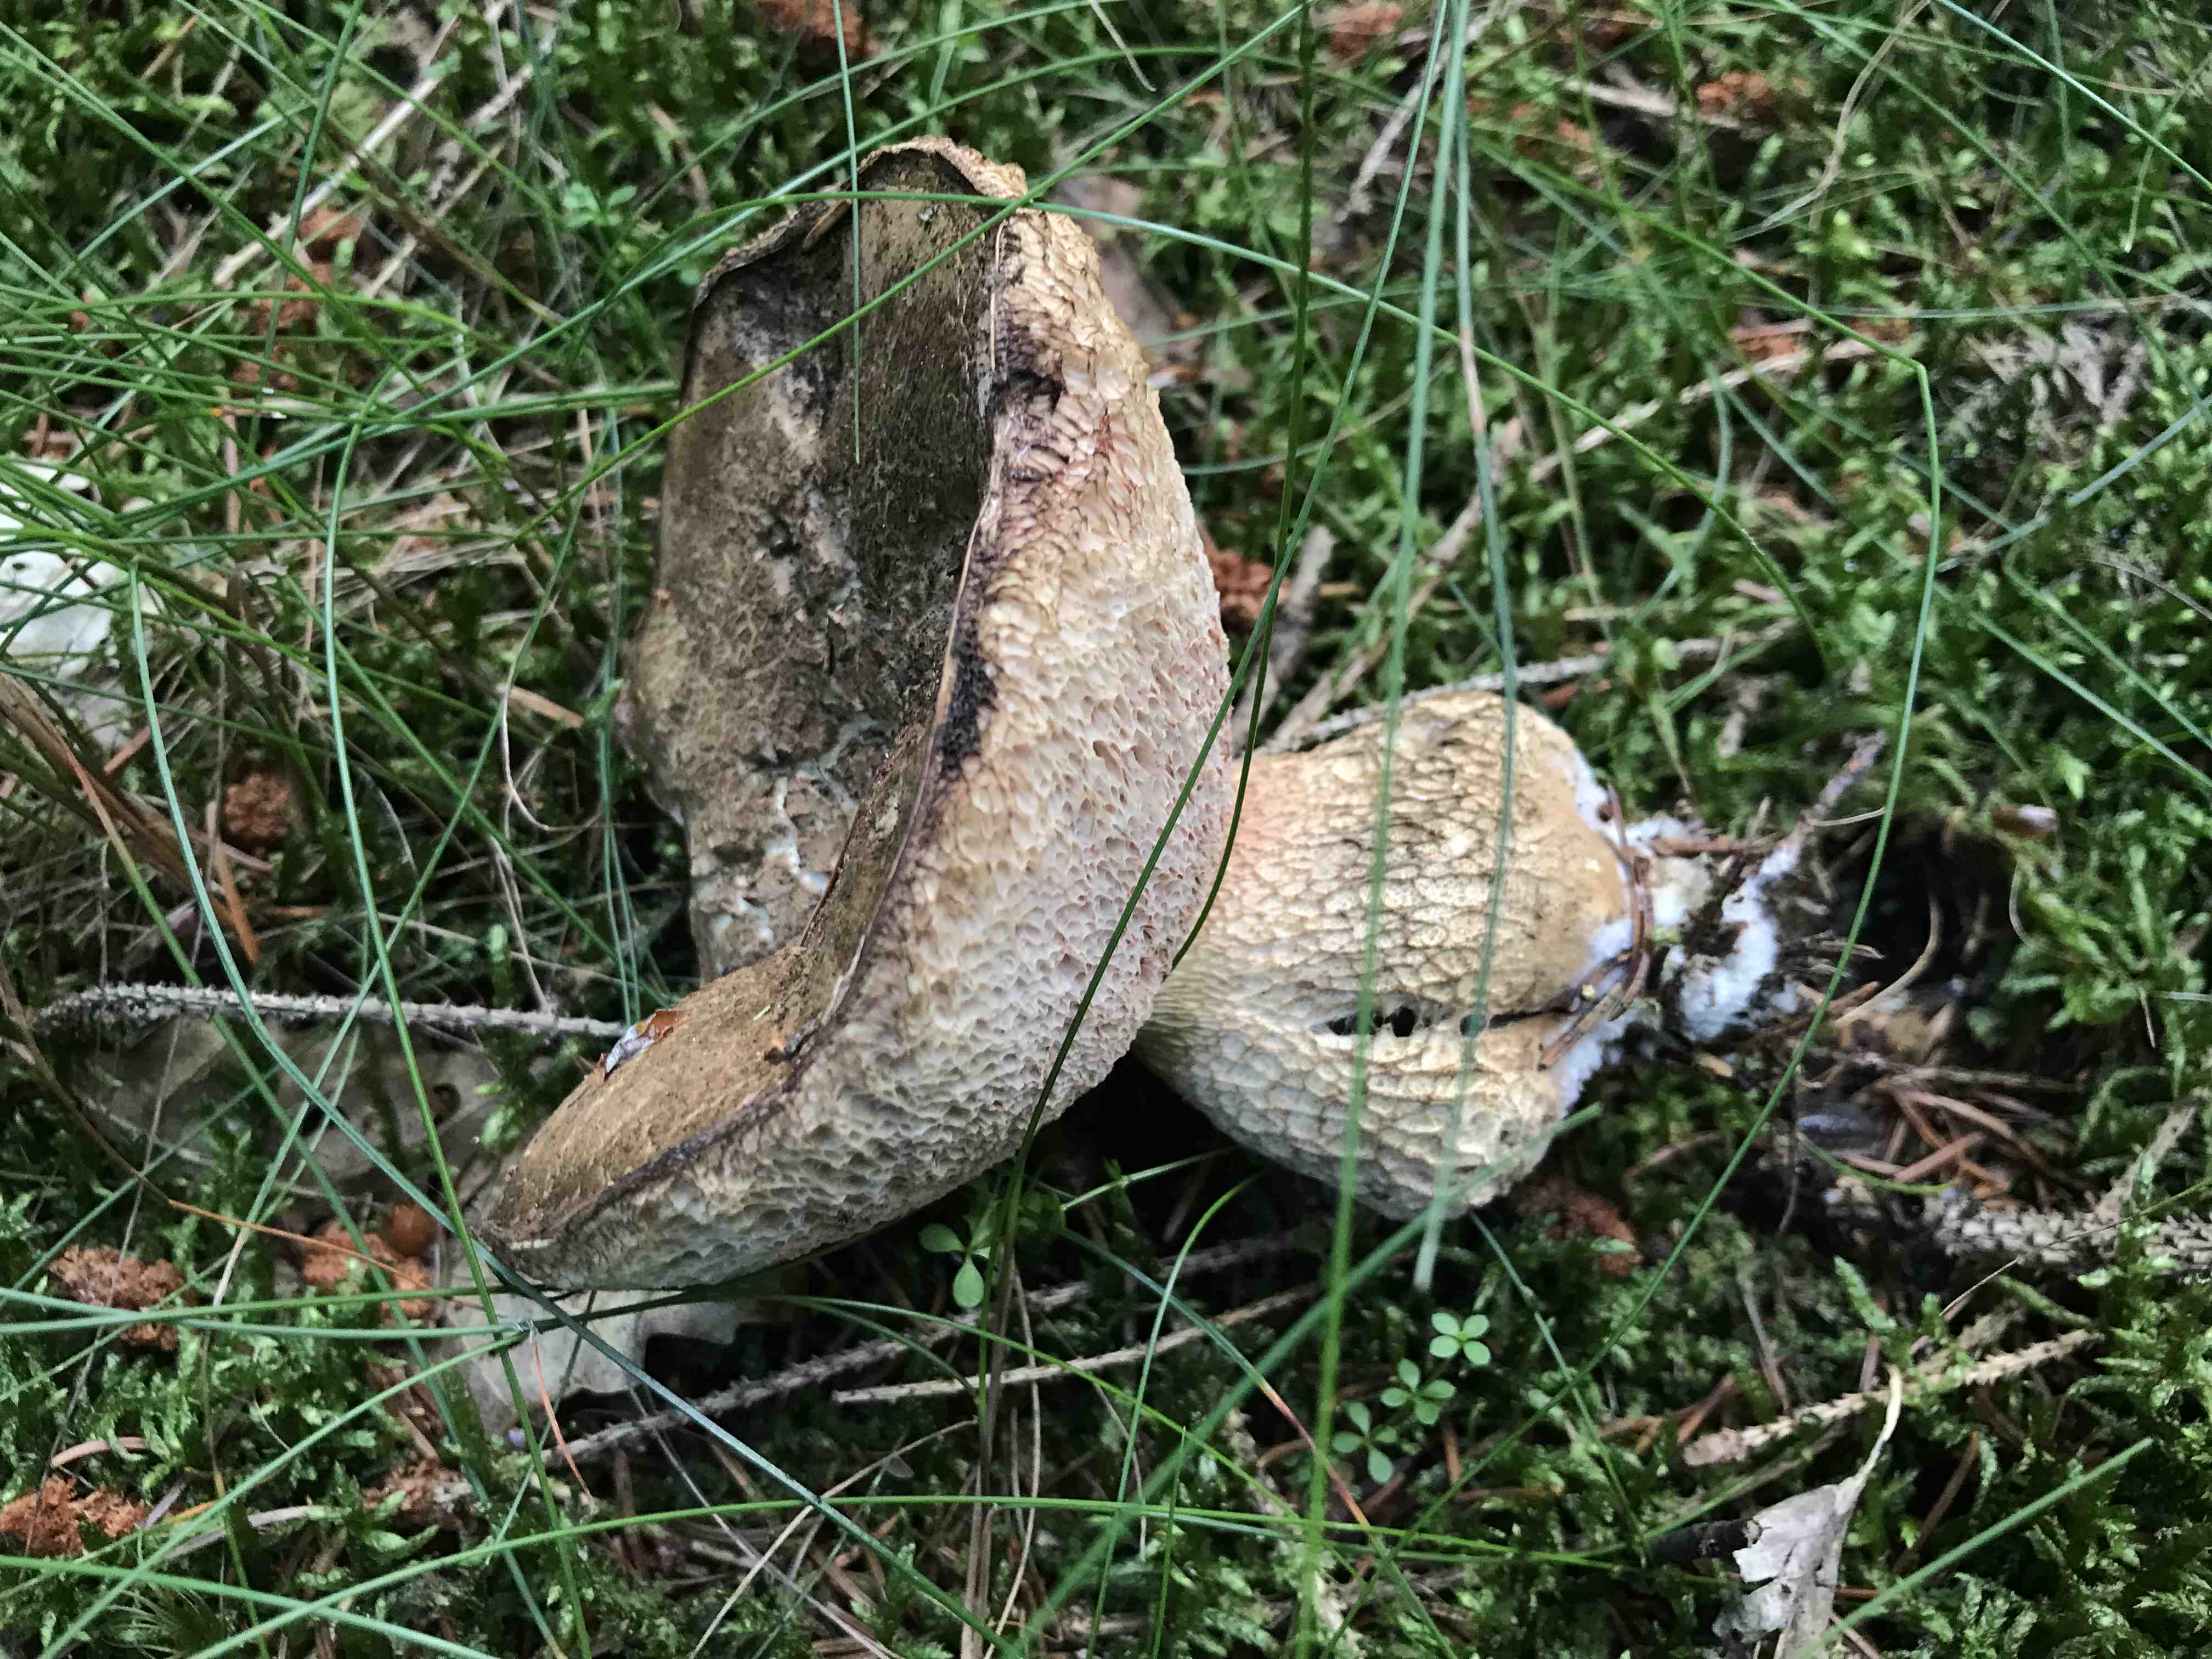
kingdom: Fungi
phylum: Basidiomycota
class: Agaricomycetes
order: Boletales
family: Boletaceae
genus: Tylopilus
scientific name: Tylopilus felleus
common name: galderørhat
